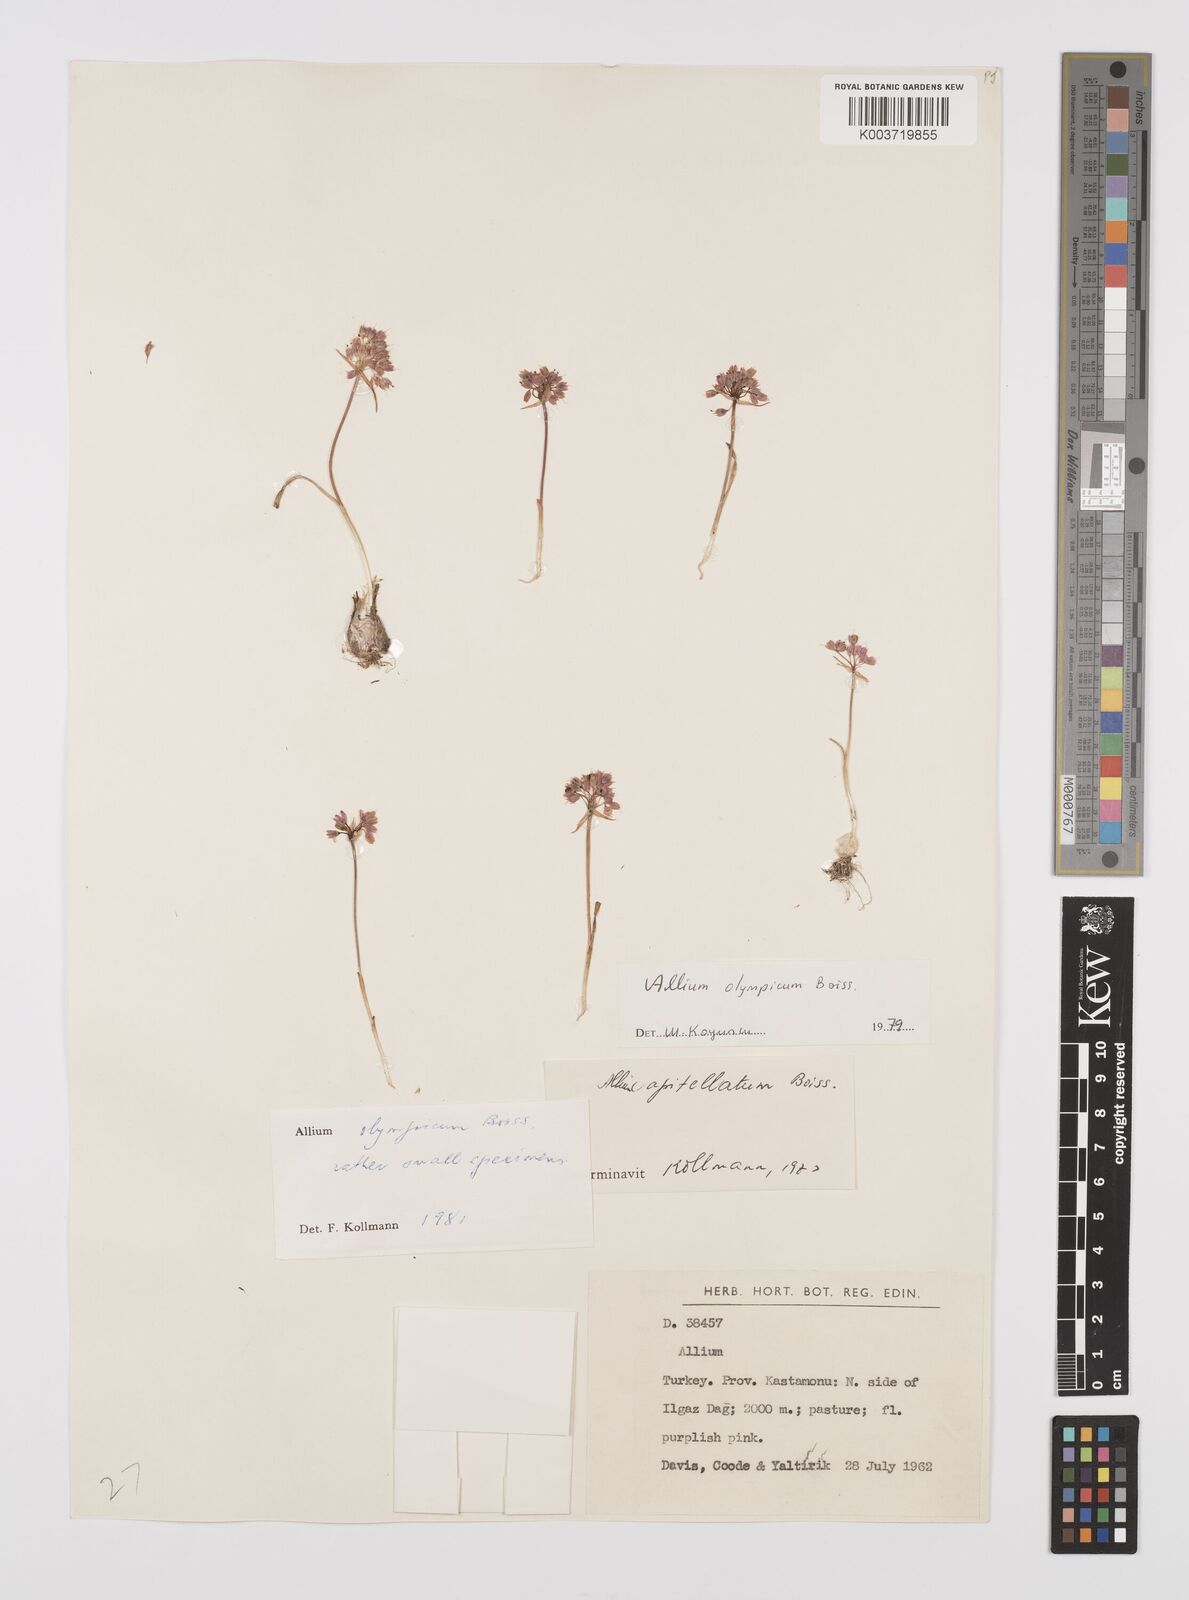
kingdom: Plantae
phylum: Tracheophyta
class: Liliopsida
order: Asparagales
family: Amaryllidaceae
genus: Allium
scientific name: Allium olympicum
